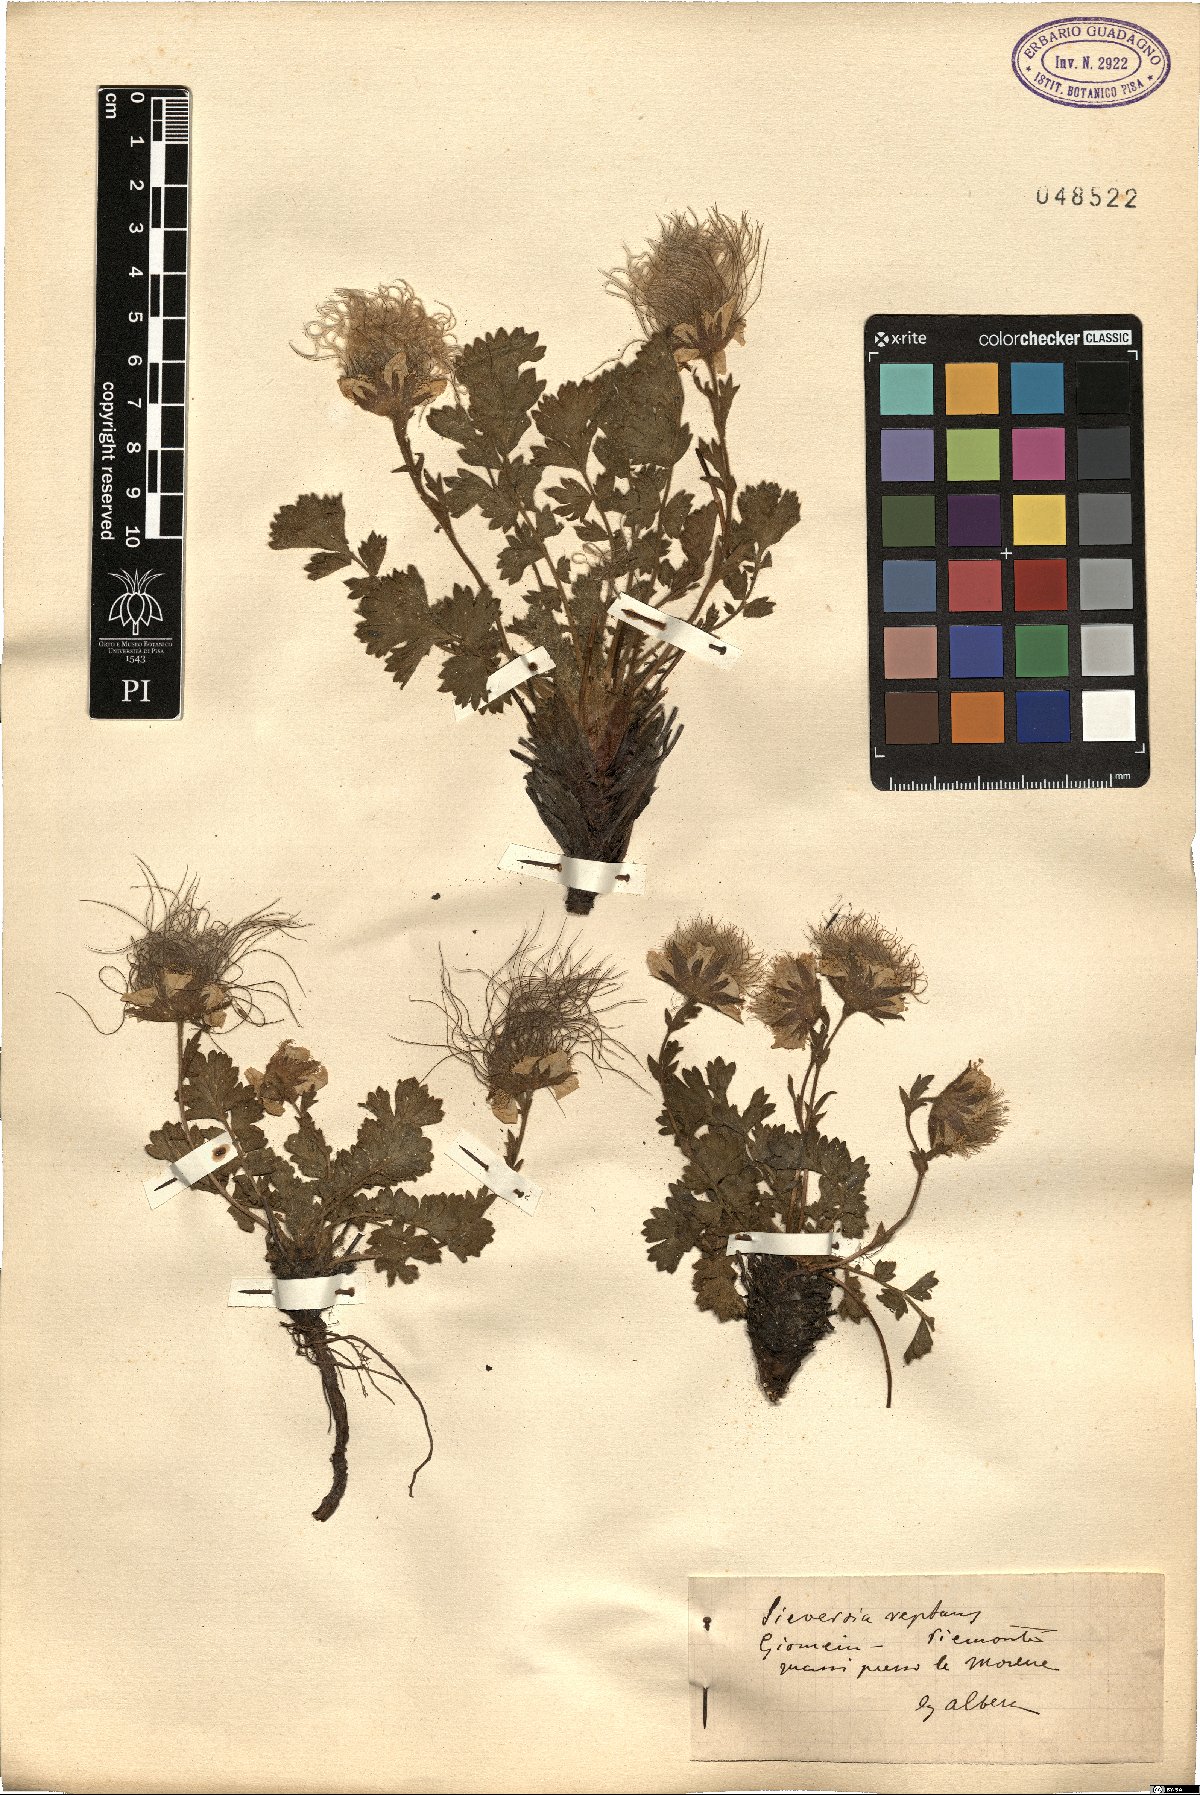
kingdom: Plantae
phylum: Tracheophyta
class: Magnoliopsida
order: Rosales
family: Rosaceae
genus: Geum
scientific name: Geum reptans
